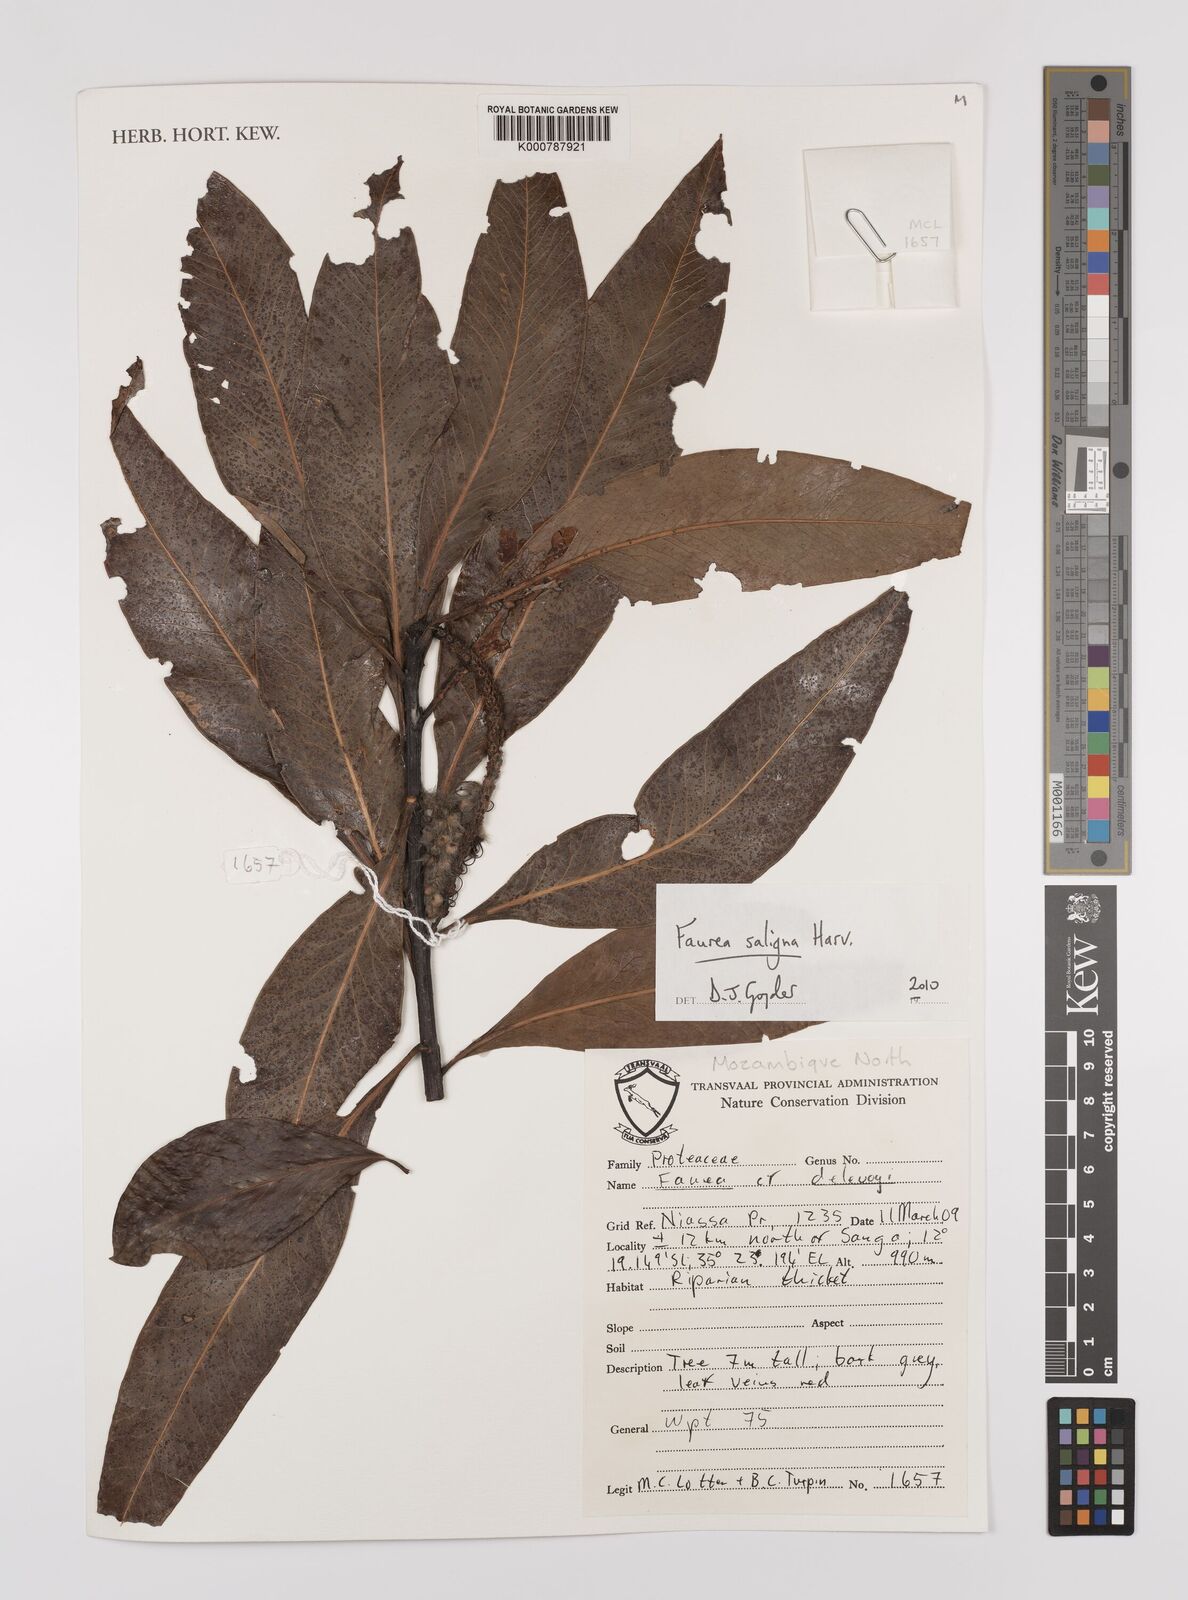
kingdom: Plantae
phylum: Tracheophyta
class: Magnoliopsida
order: Proteales
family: Proteaceae
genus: Faurea
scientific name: Faurea saligna
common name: African bean
